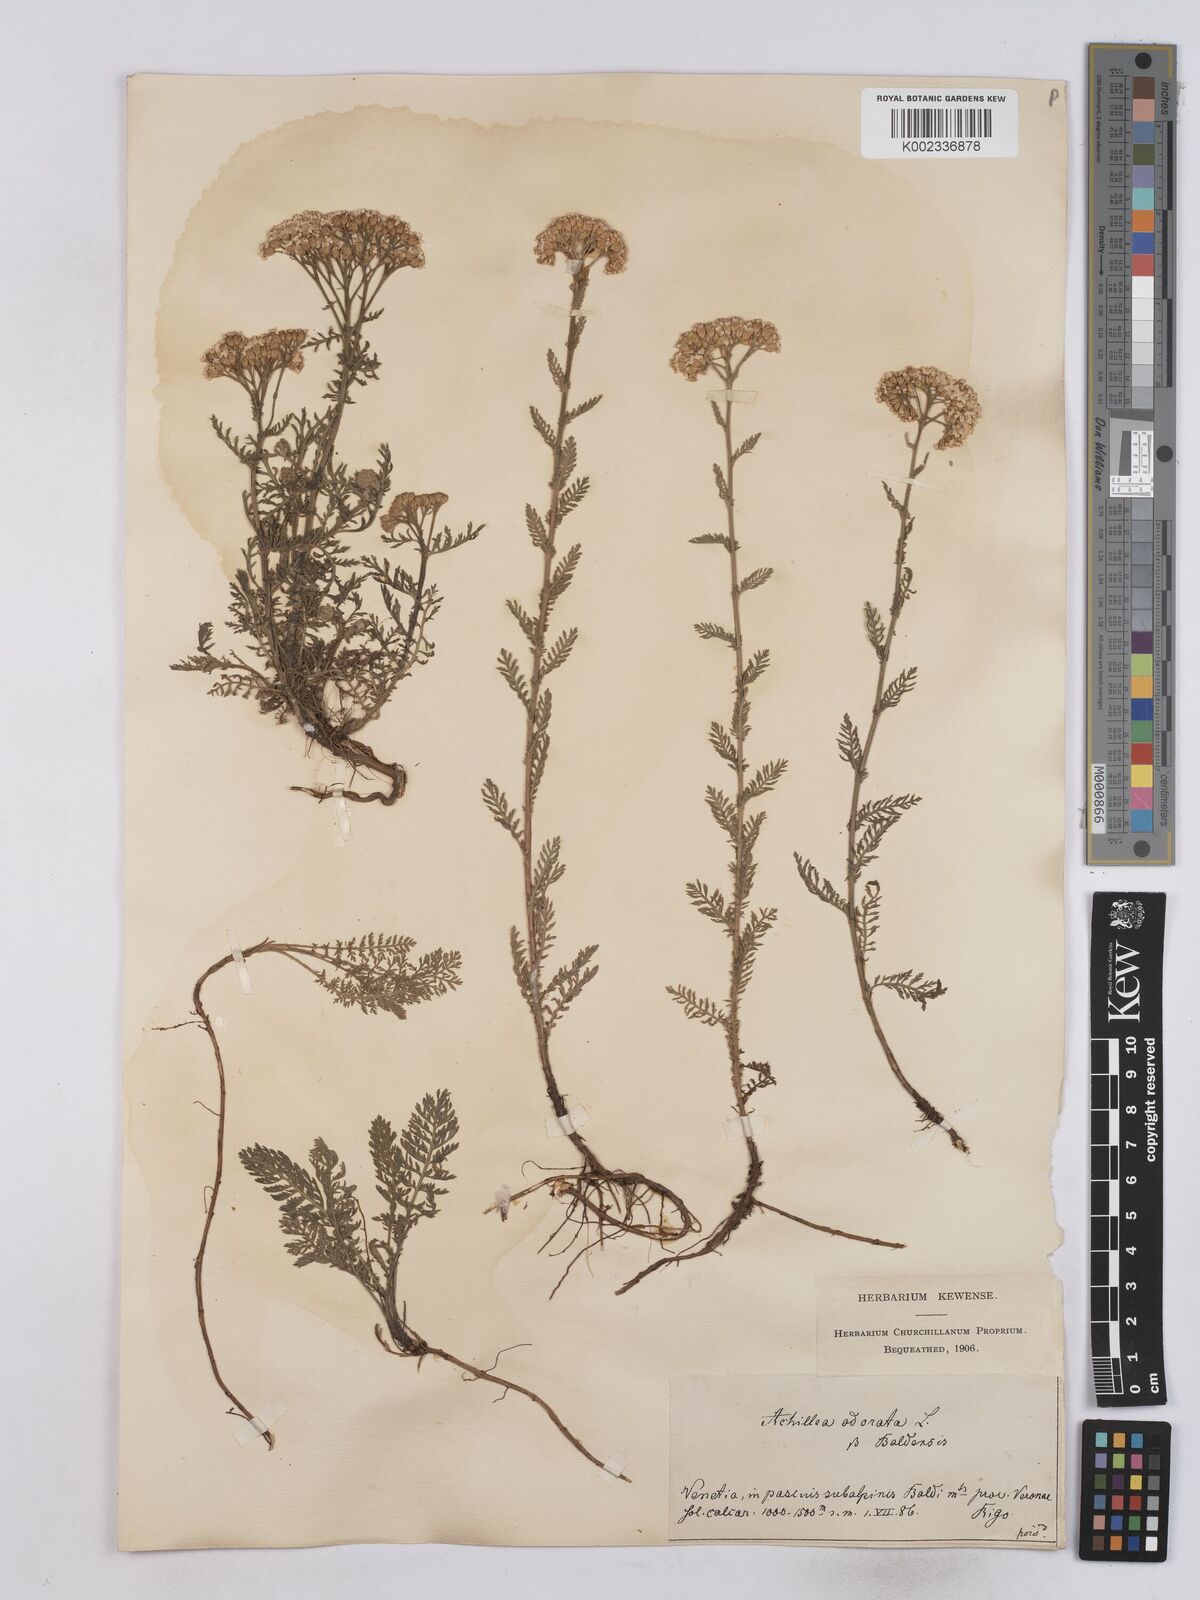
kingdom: Plantae
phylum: Tracheophyta
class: Magnoliopsida
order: Asterales
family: Asteraceae
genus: Achillea
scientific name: Achillea odorata
